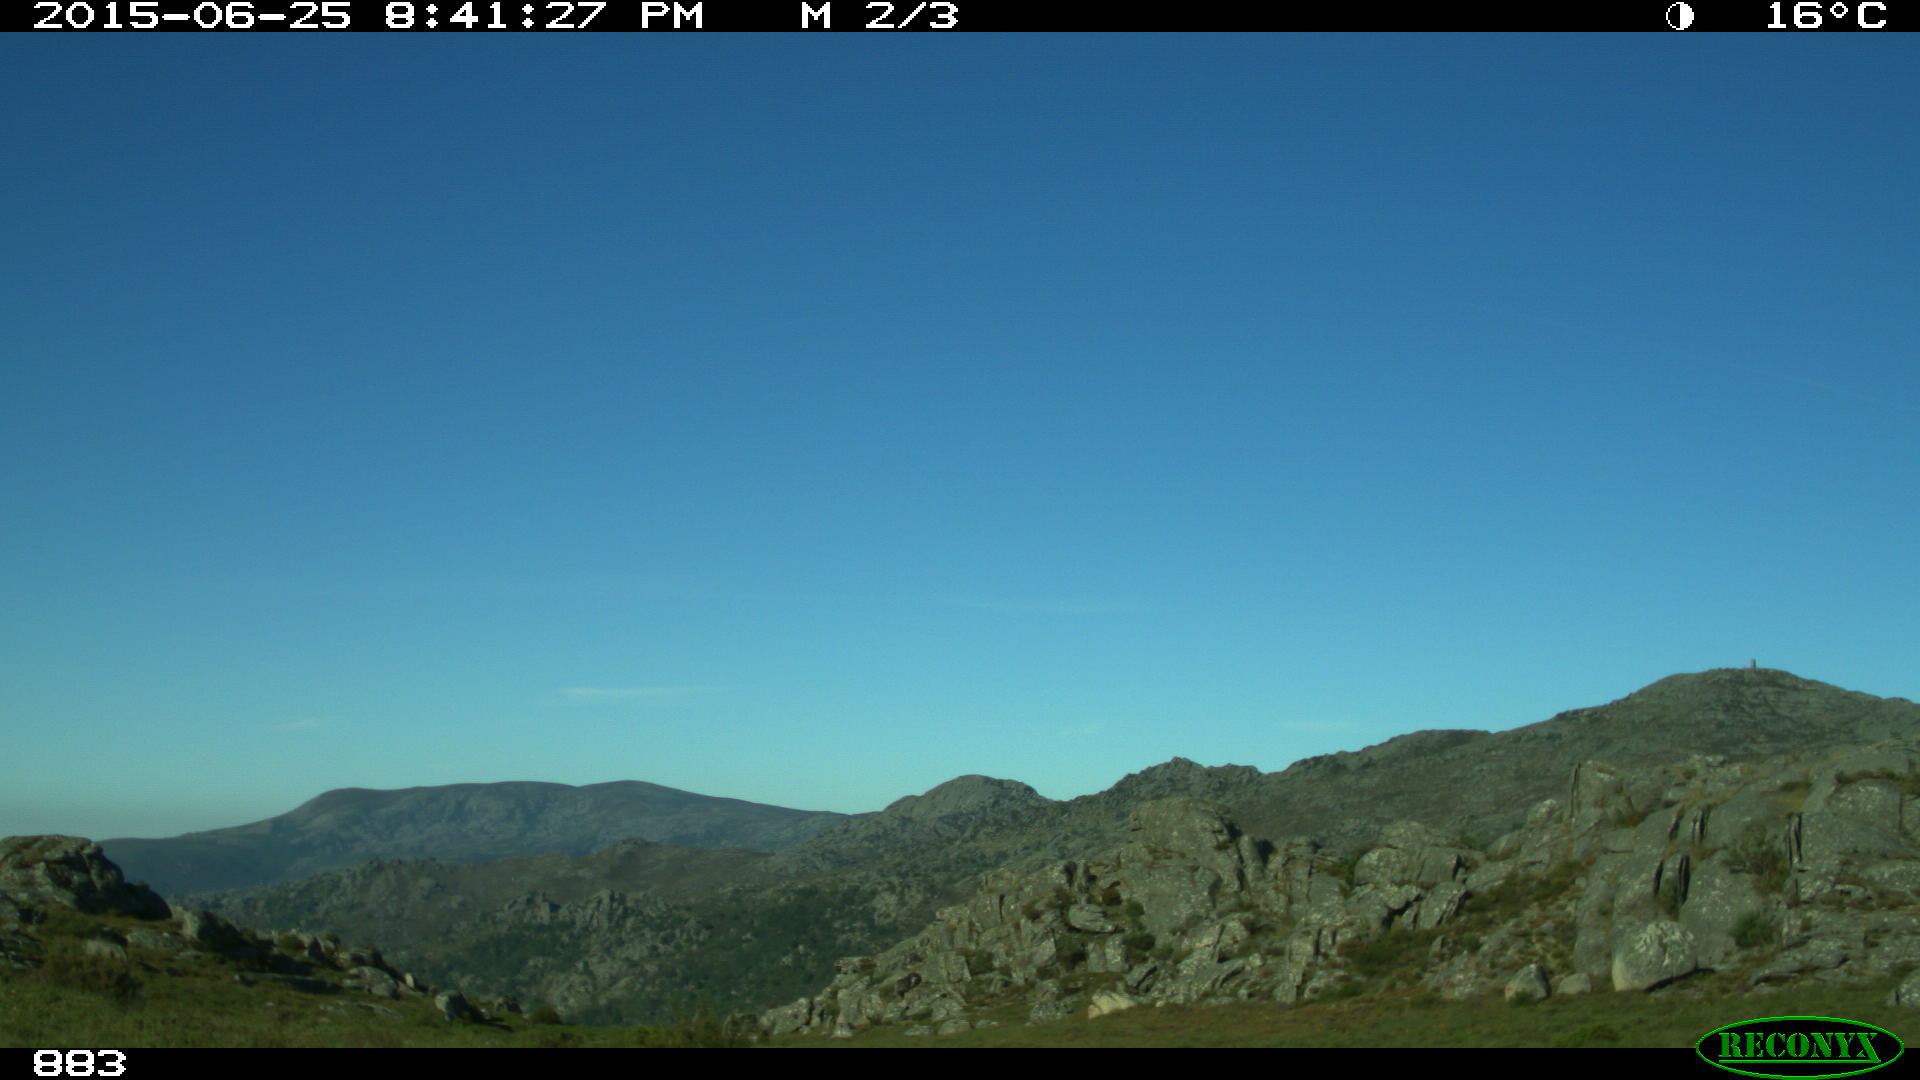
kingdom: Animalia
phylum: Chordata
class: Mammalia
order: Artiodactyla
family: Bovidae
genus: Bos
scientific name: Bos taurus
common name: Domesticated cattle
